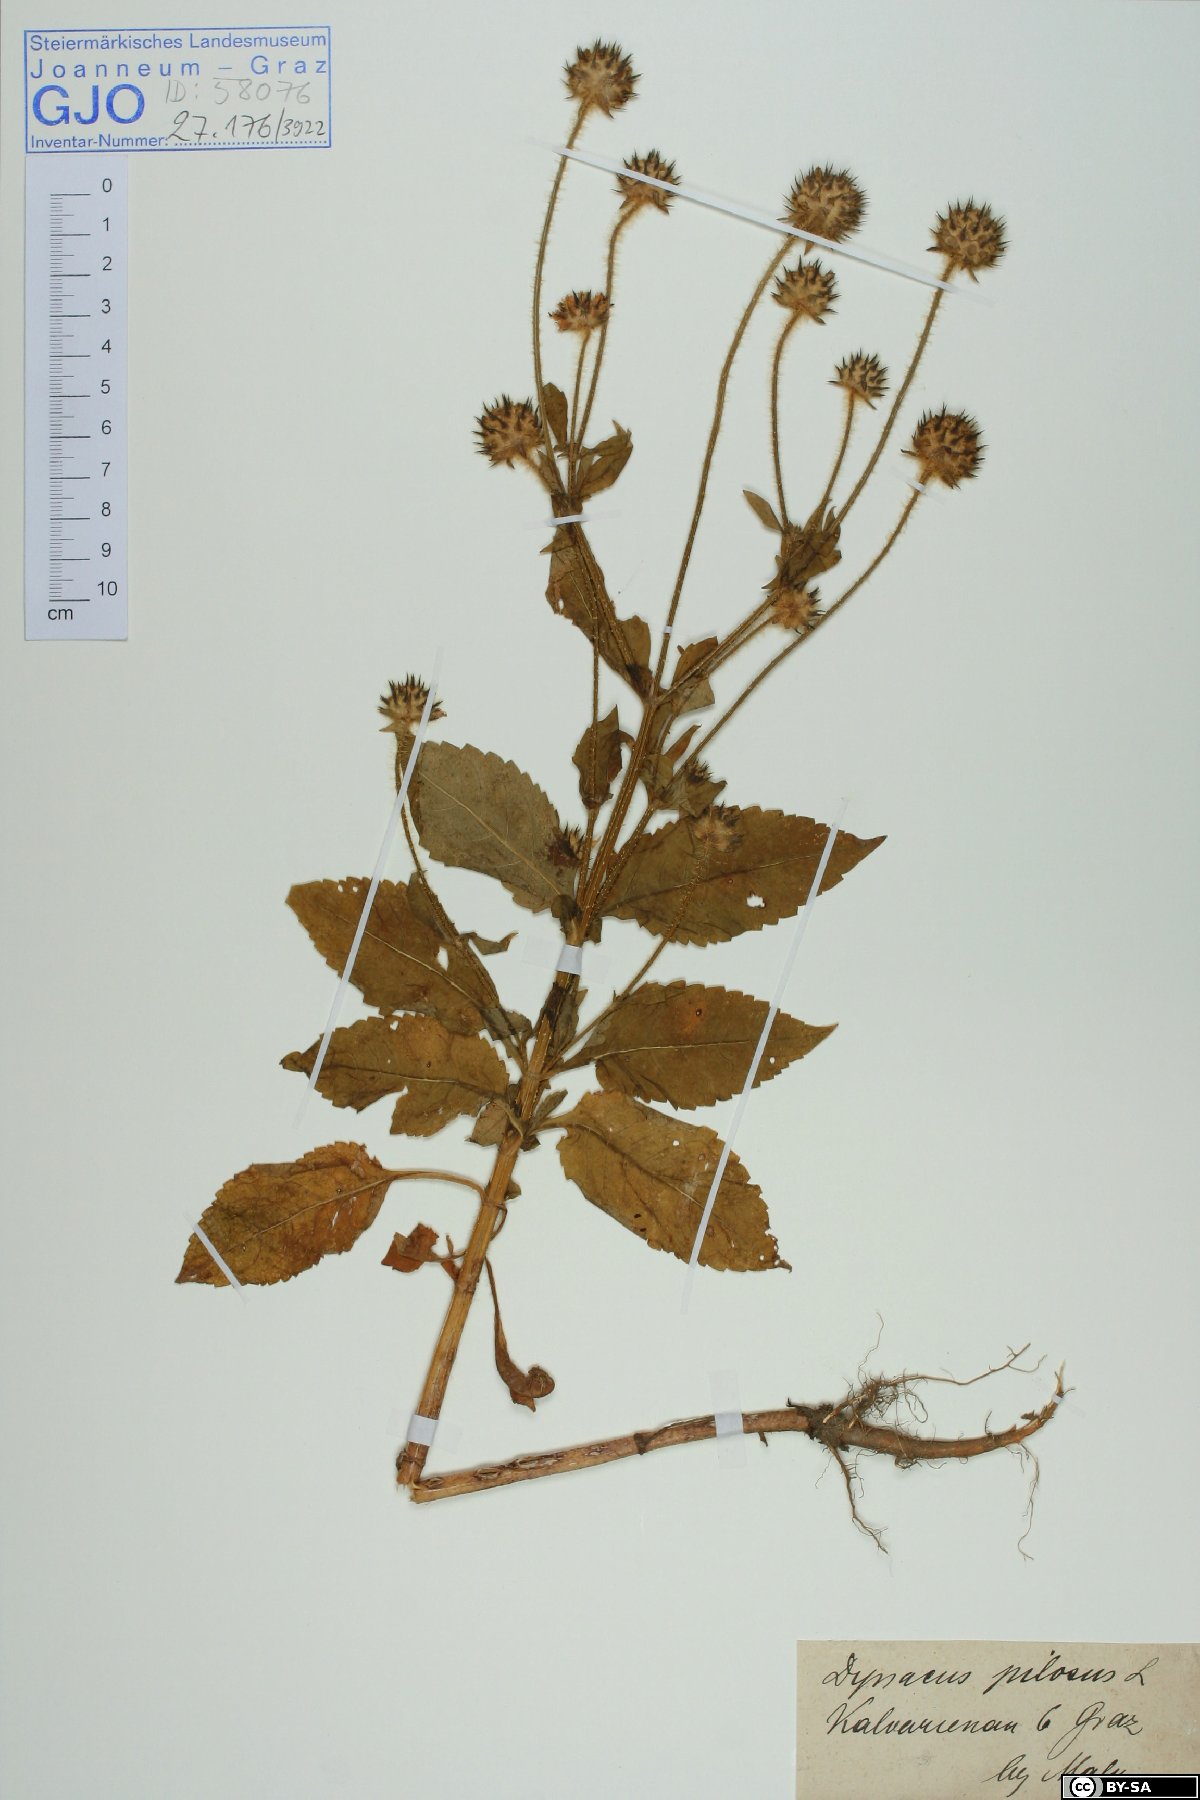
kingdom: Plantae
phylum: Tracheophyta
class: Magnoliopsida
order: Dipsacales
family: Caprifoliaceae
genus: Dipsacus
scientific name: Dipsacus pilosus
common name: Small teasel
